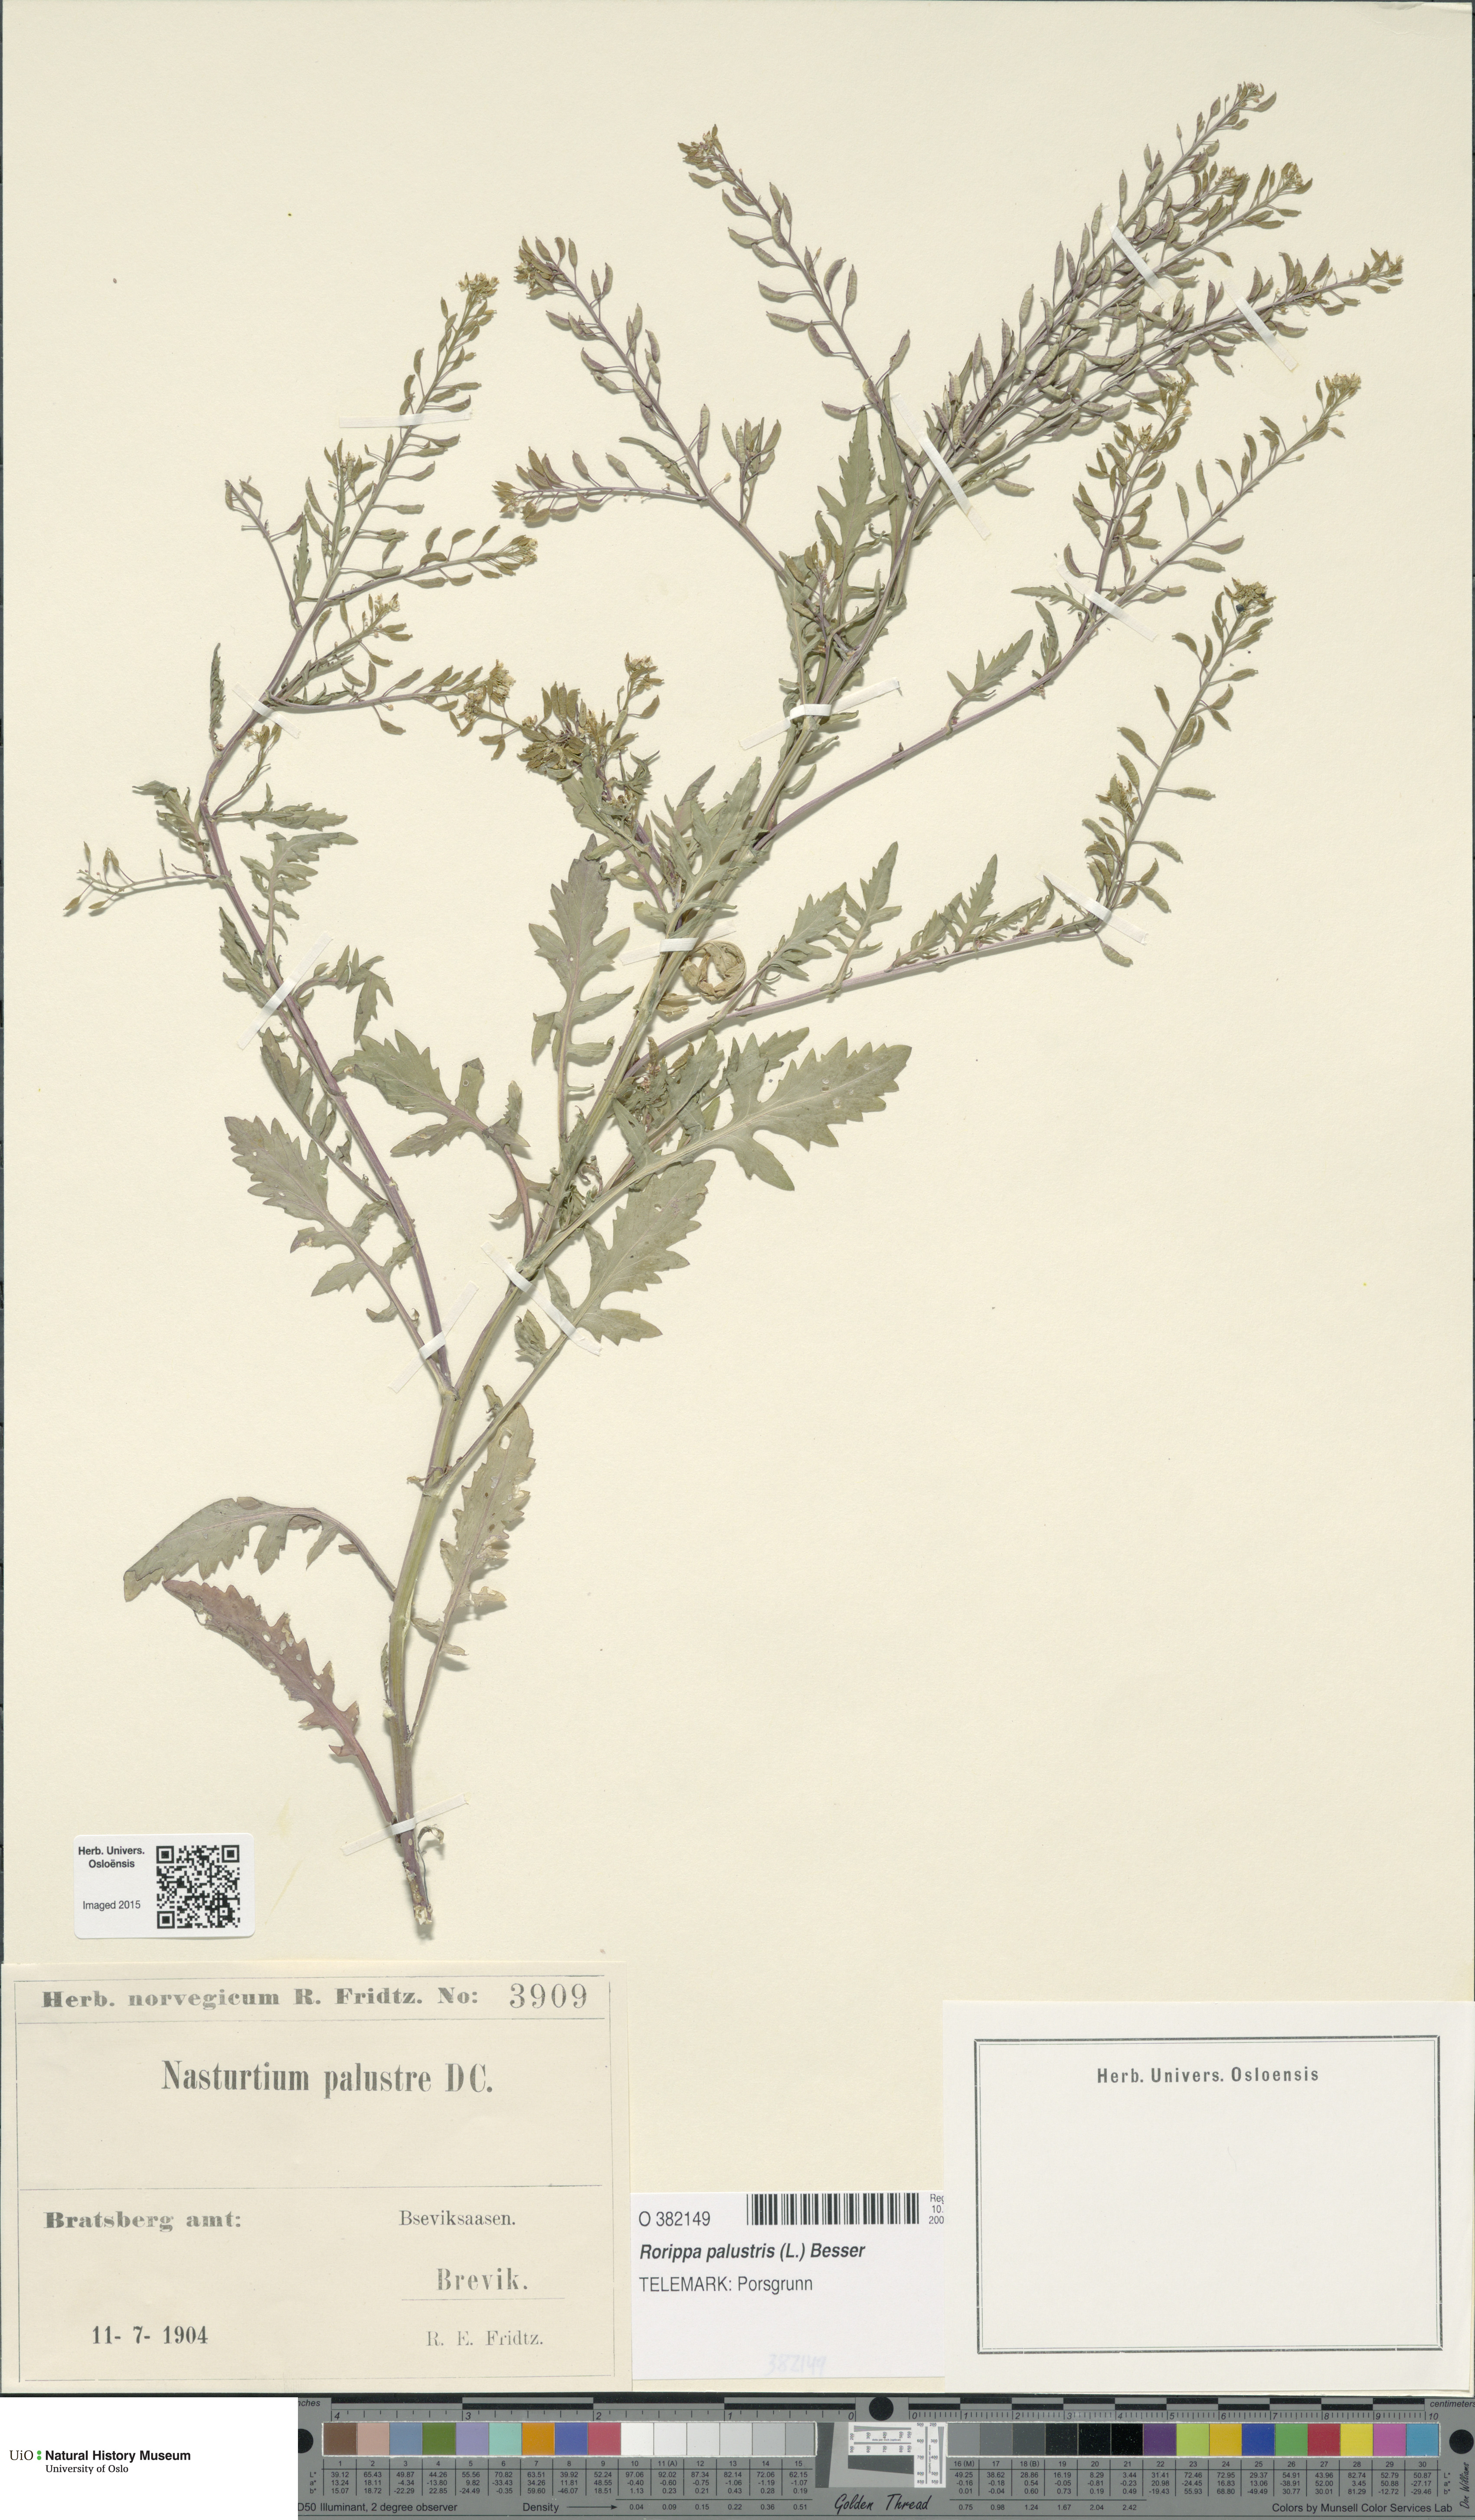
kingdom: Plantae
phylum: Tracheophyta
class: Magnoliopsida
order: Brassicales
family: Brassicaceae
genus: Rorippa
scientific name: Rorippa palustris
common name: Marsh yellow-cress
